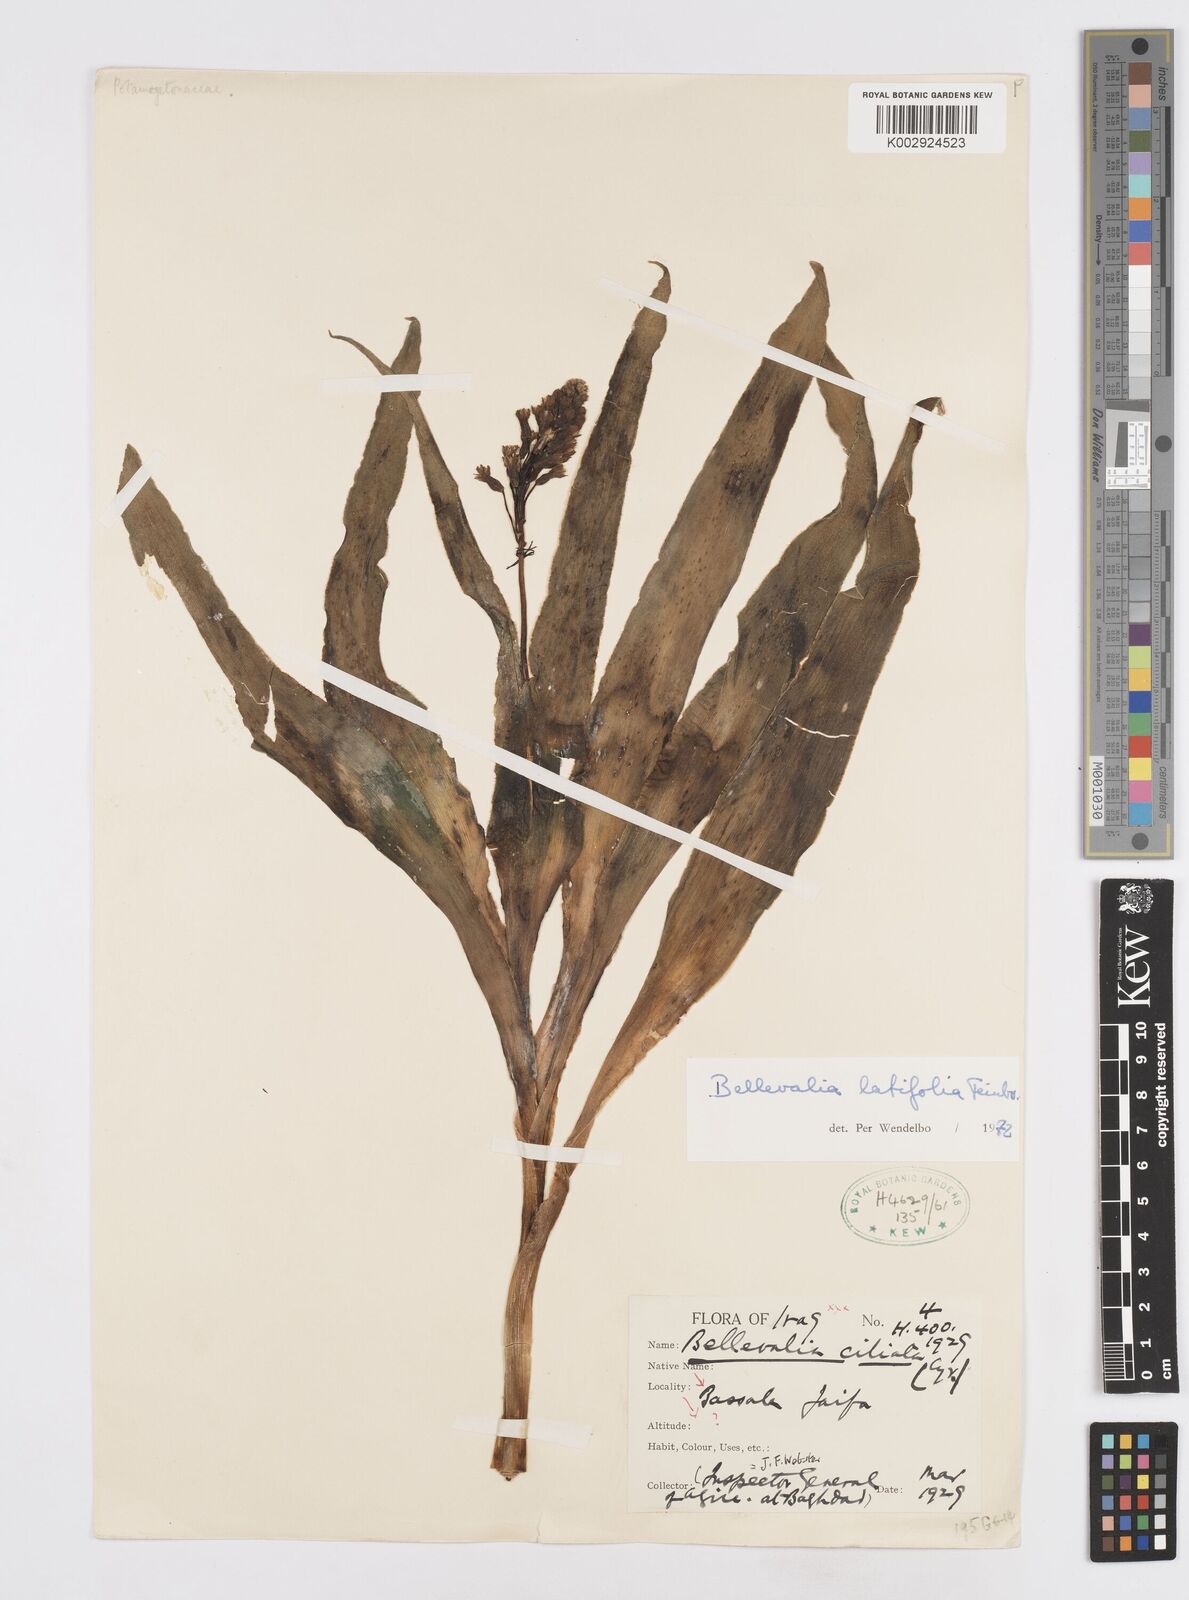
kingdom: Plantae
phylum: Tracheophyta
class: Liliopsida
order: Asparagales
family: Asparagaceae
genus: Bellevalia
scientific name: Bellevalia olivieri
